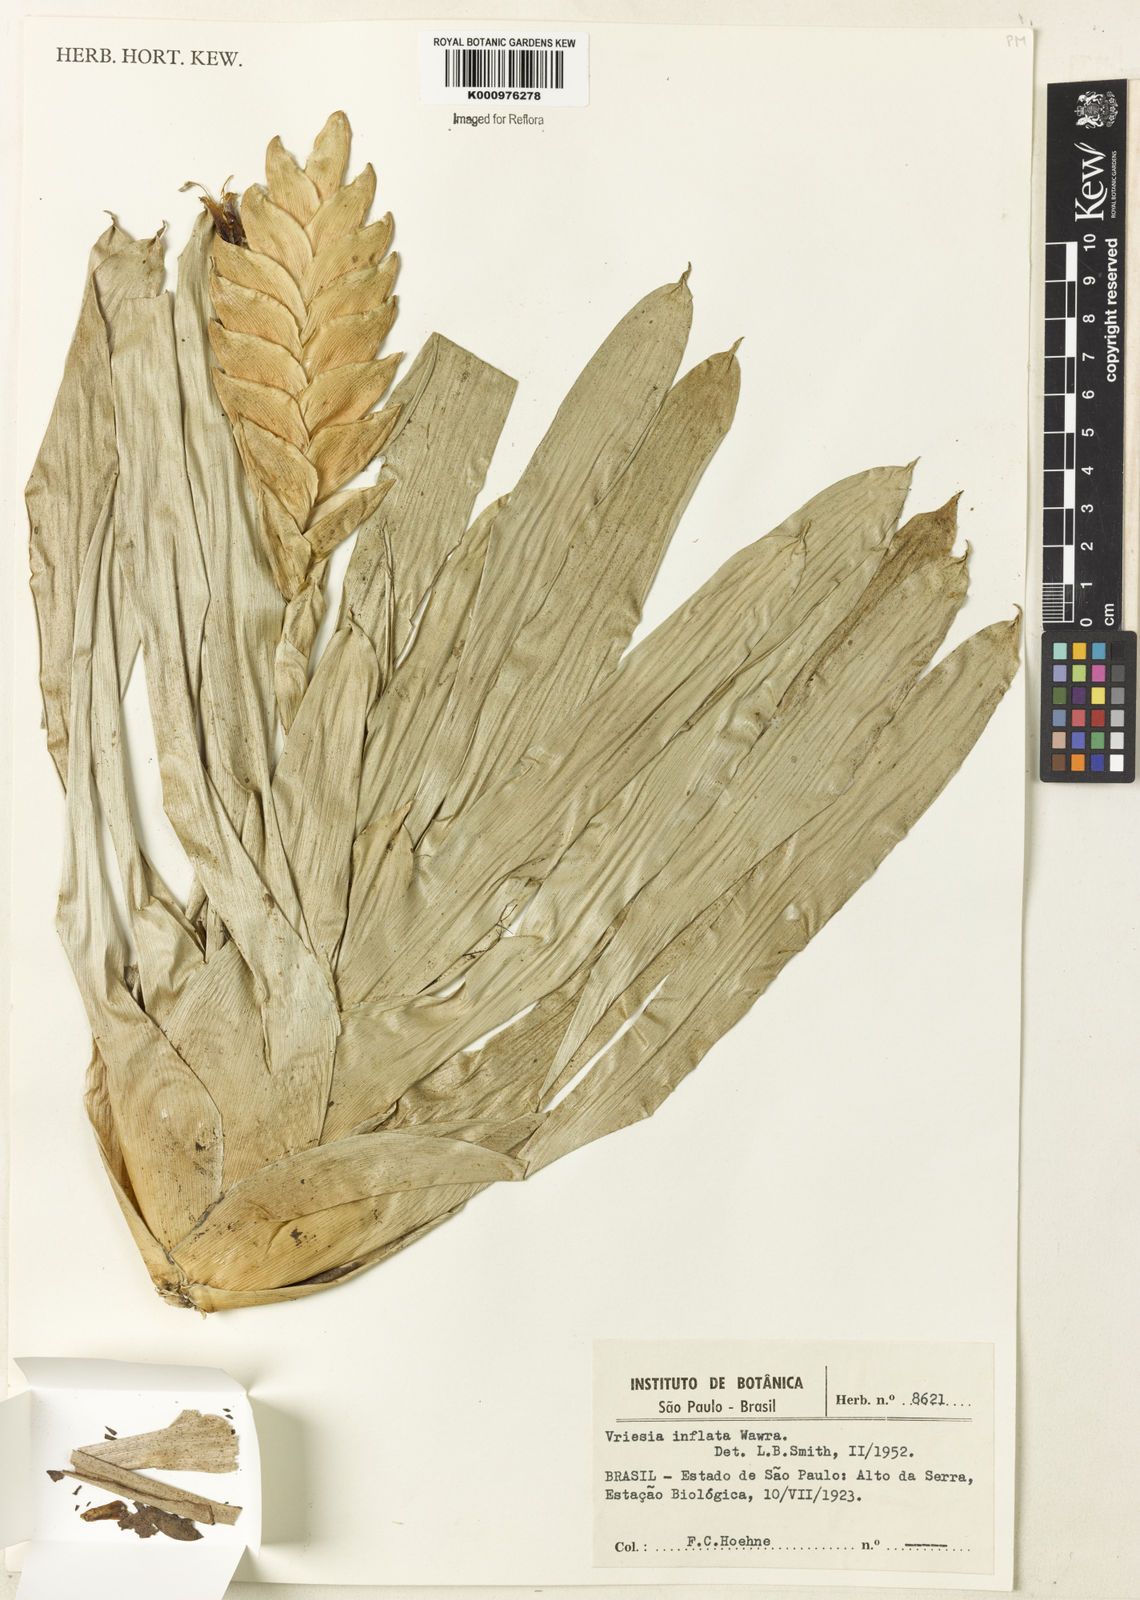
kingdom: Plantae
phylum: Tracheophyta
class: Liliopsida
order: Poales
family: Bromeliaceae
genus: Vriesea
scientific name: Vriesea inflata
